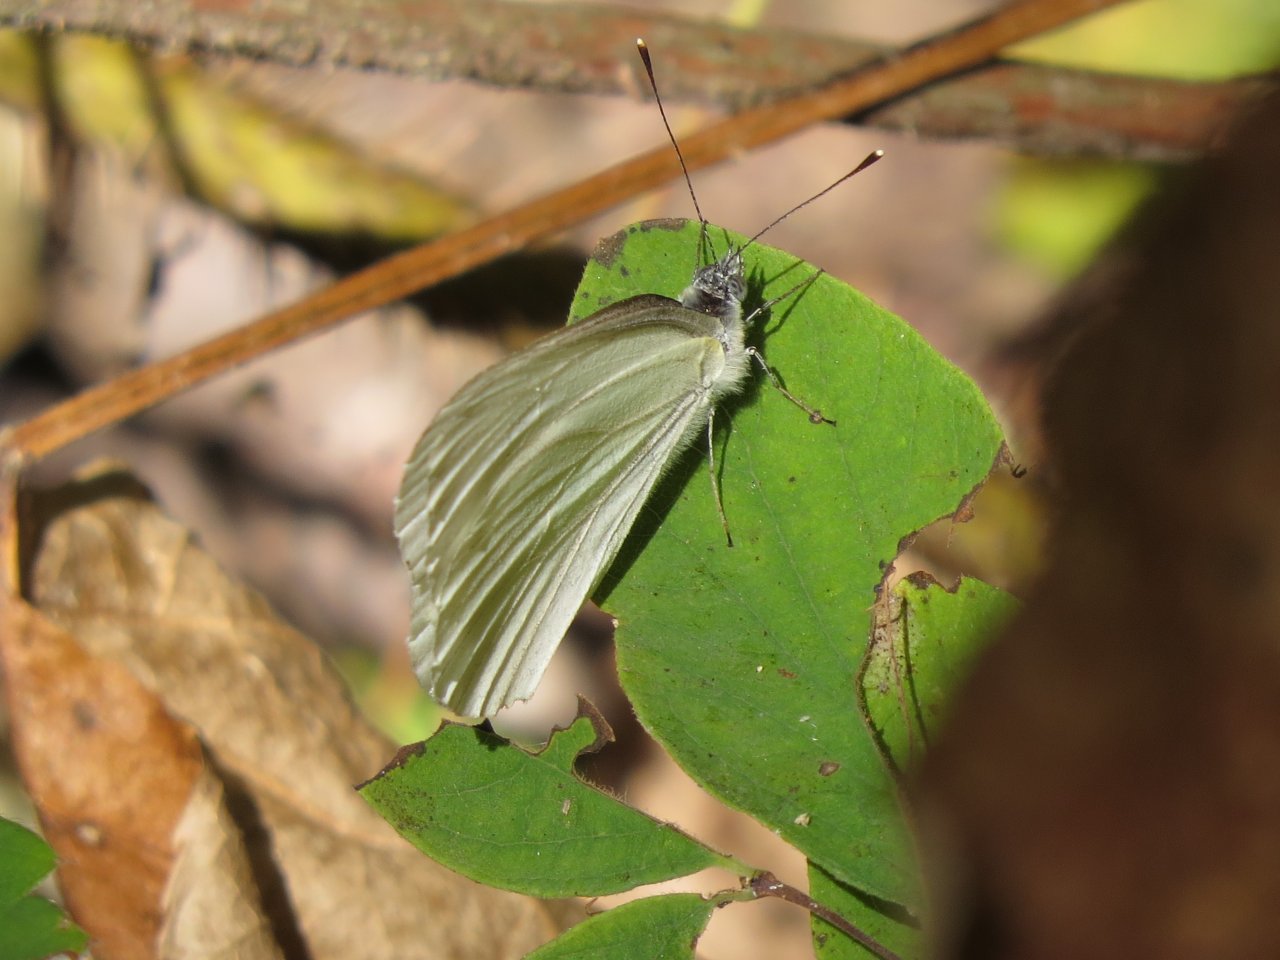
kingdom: Animalia
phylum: Arthropoda
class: Insecta
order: Lepidoptera
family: Pieridae
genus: Pieris
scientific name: Pieris oleracea
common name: Mustard White
